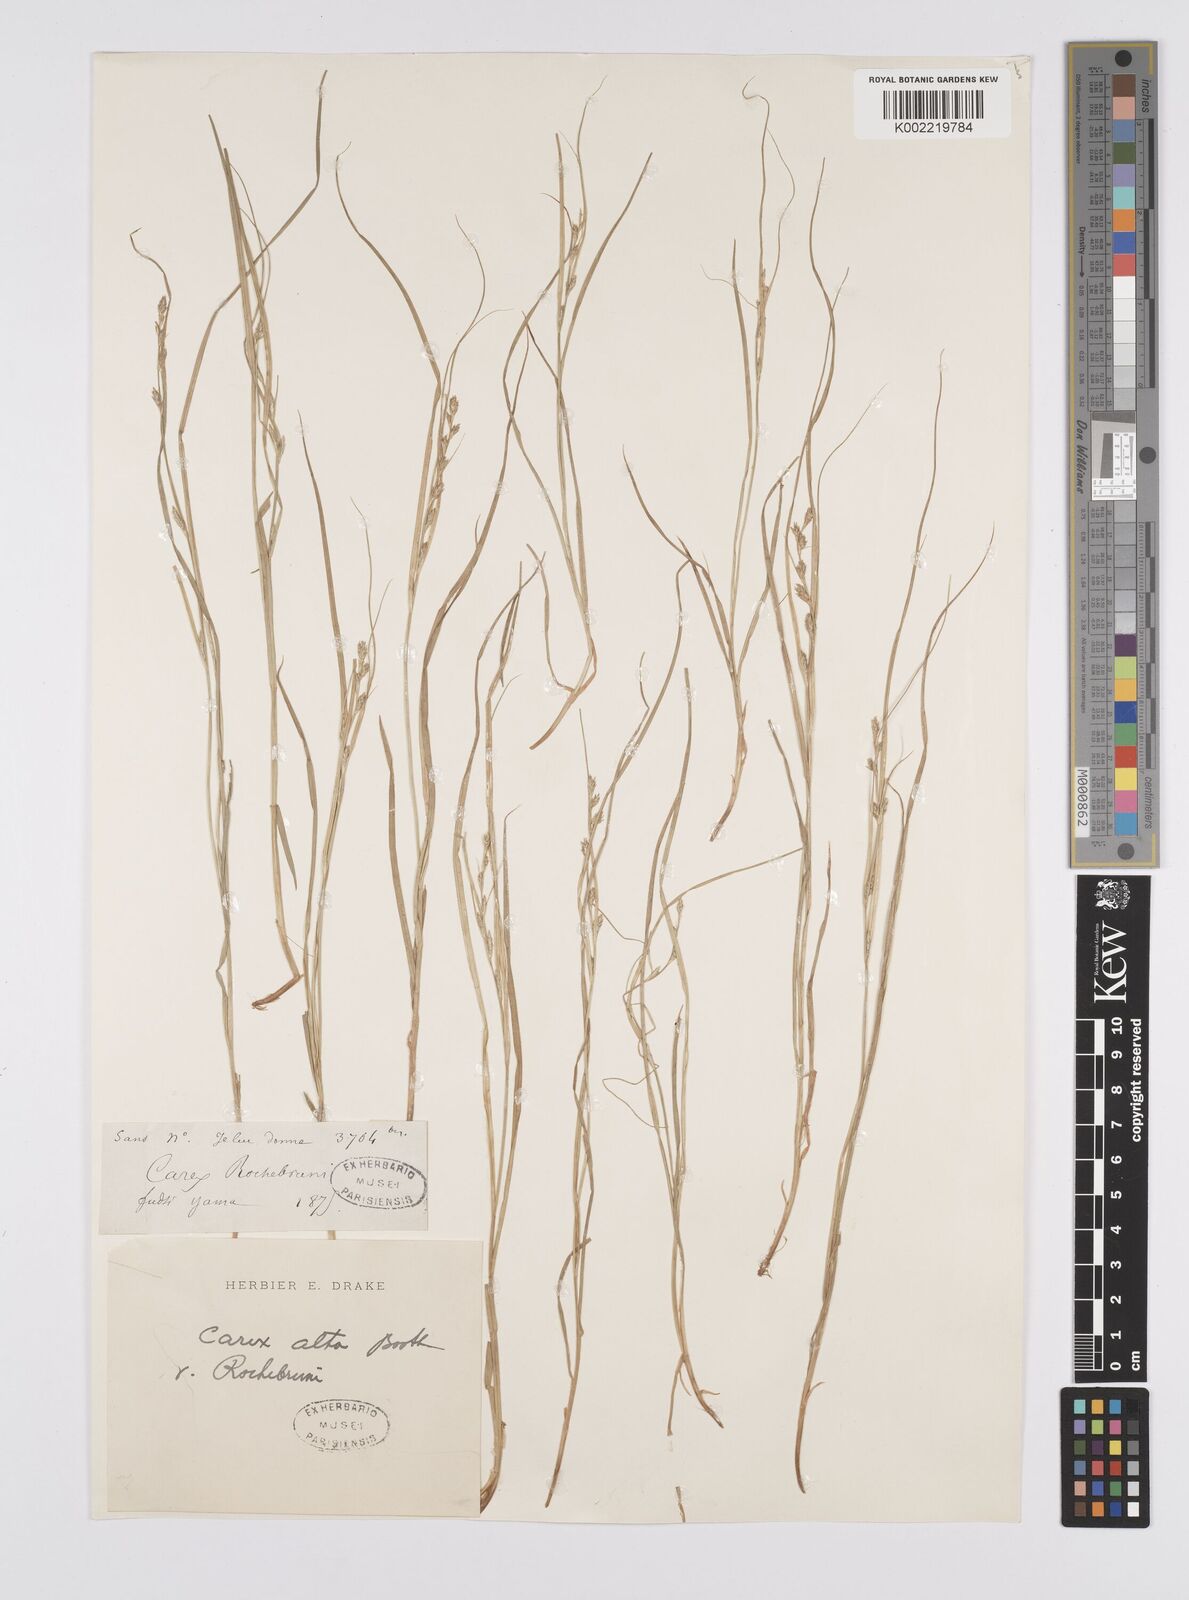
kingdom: Plantae
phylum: Tracheophyta
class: Liliopsida
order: Poales
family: Cyperaceae
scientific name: Cyperaceae
